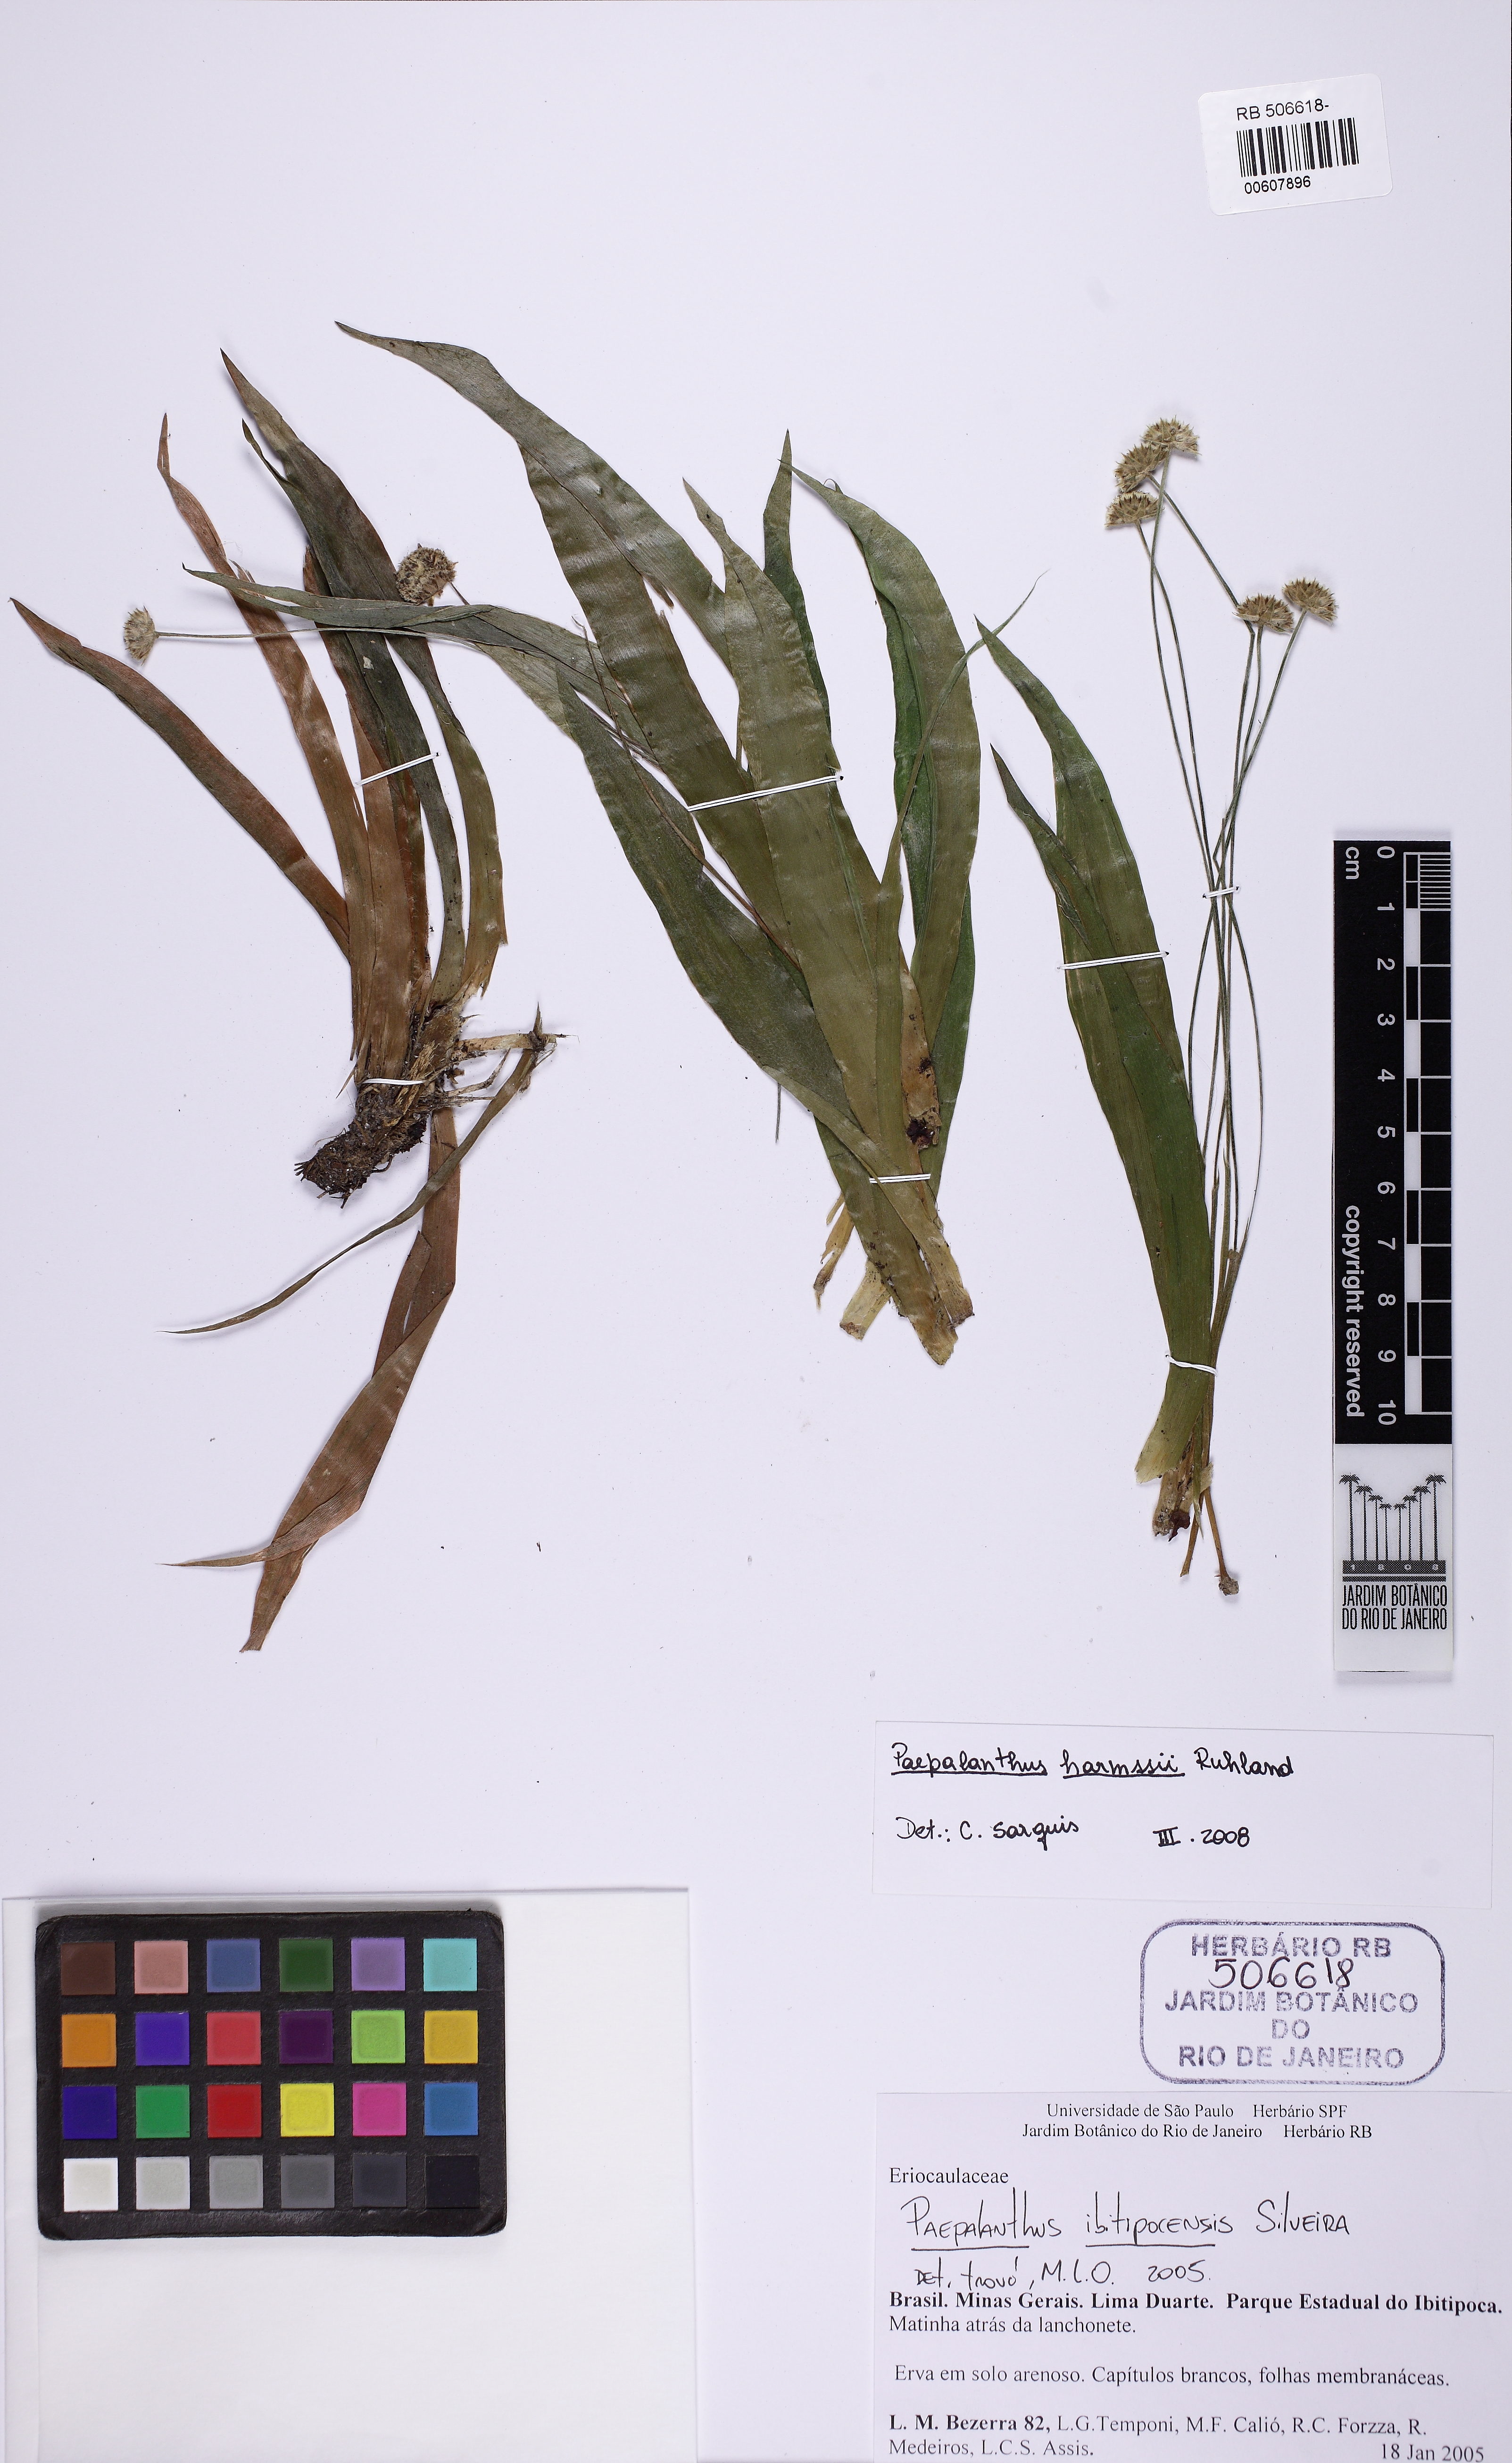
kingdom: Plantae
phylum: Tracheophyta
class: Liliopsida
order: Poales
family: Eriocaulaceae
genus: Paepalanthus
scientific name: Paepalanthus harmsii
